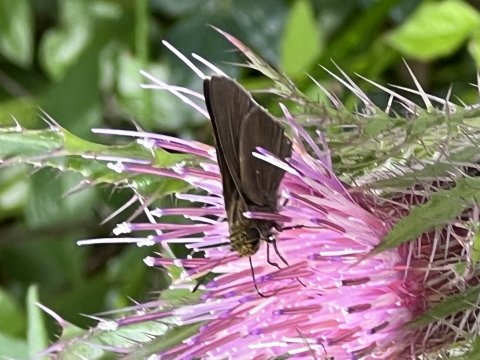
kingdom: Animalia
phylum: Arthropoda
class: Insecta
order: Lepidoptera
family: Hesperiidae
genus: Lerema
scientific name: Lerema accius
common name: Clouded Skipper
